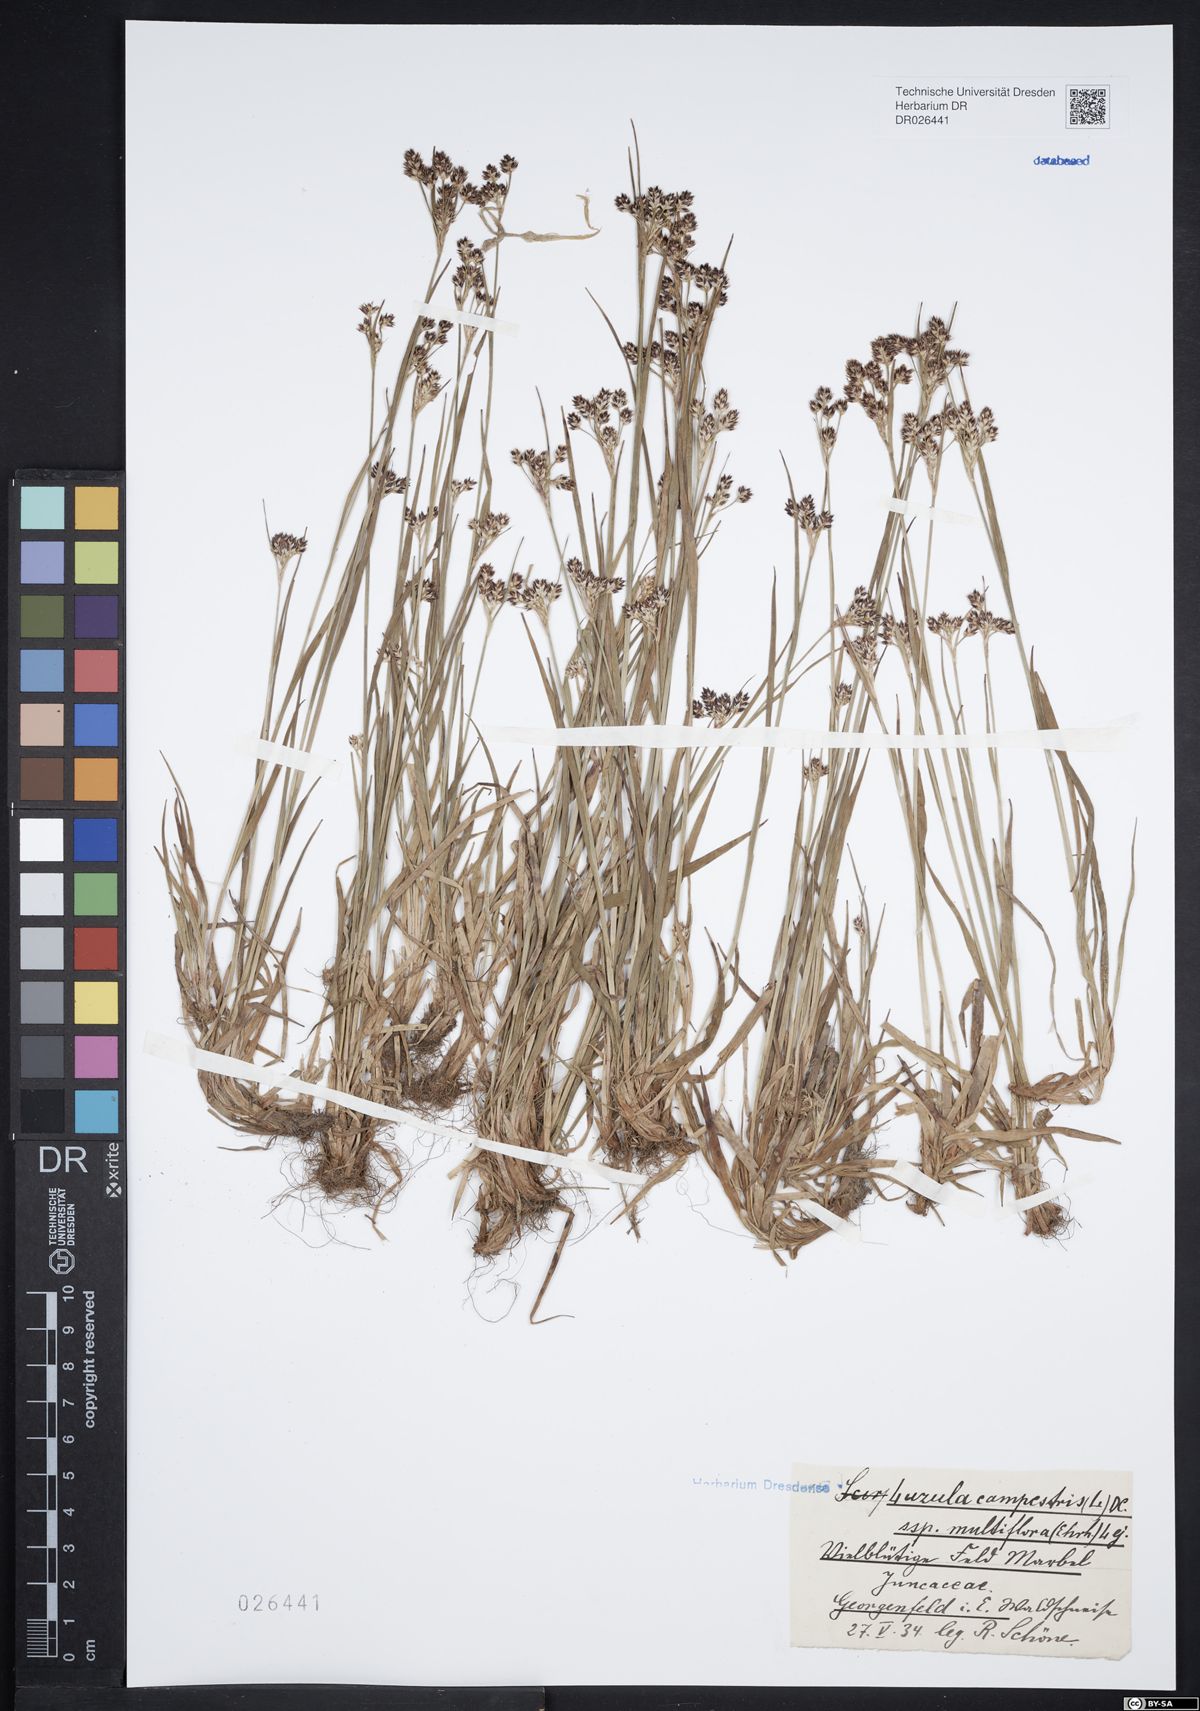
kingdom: Plantae
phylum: Tracheophyta
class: Liliopsida
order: Poales
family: Juncaceae
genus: Luzula
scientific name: Luzula multiflora
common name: Heath wood-rush
